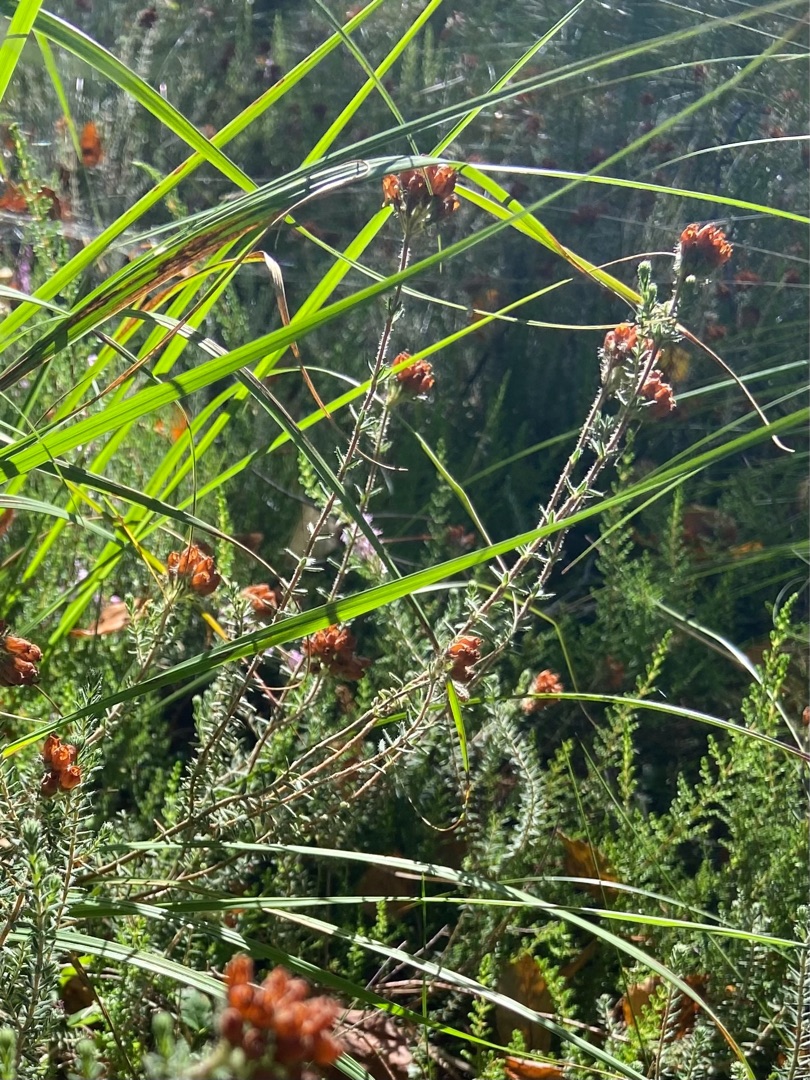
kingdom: Plantae
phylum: Tracheophyta
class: Magnoliopsida
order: Ericales
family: Ericaceae
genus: Erica
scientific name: Erica tetralix
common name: Klokkelyng
